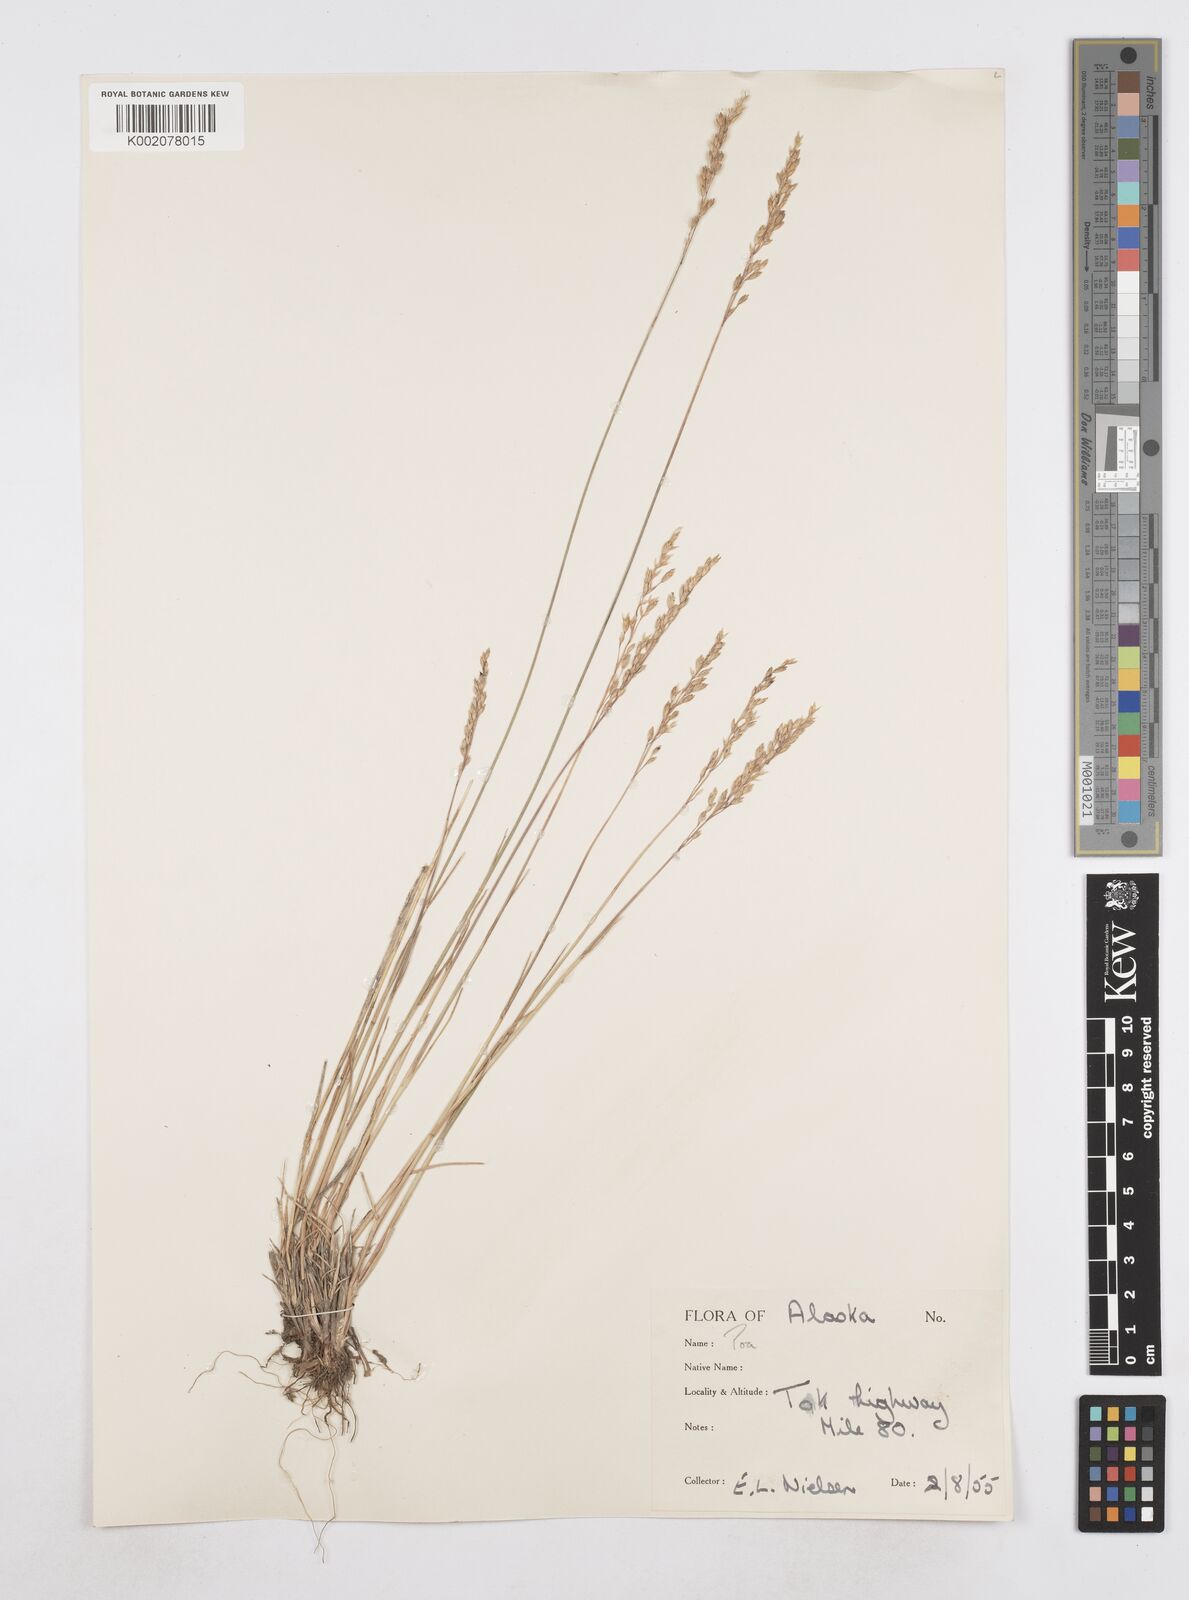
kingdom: Plantae
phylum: Tracheophyta
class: Liliopsida
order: Poales
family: Poaceae
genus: Poa
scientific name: Poa
